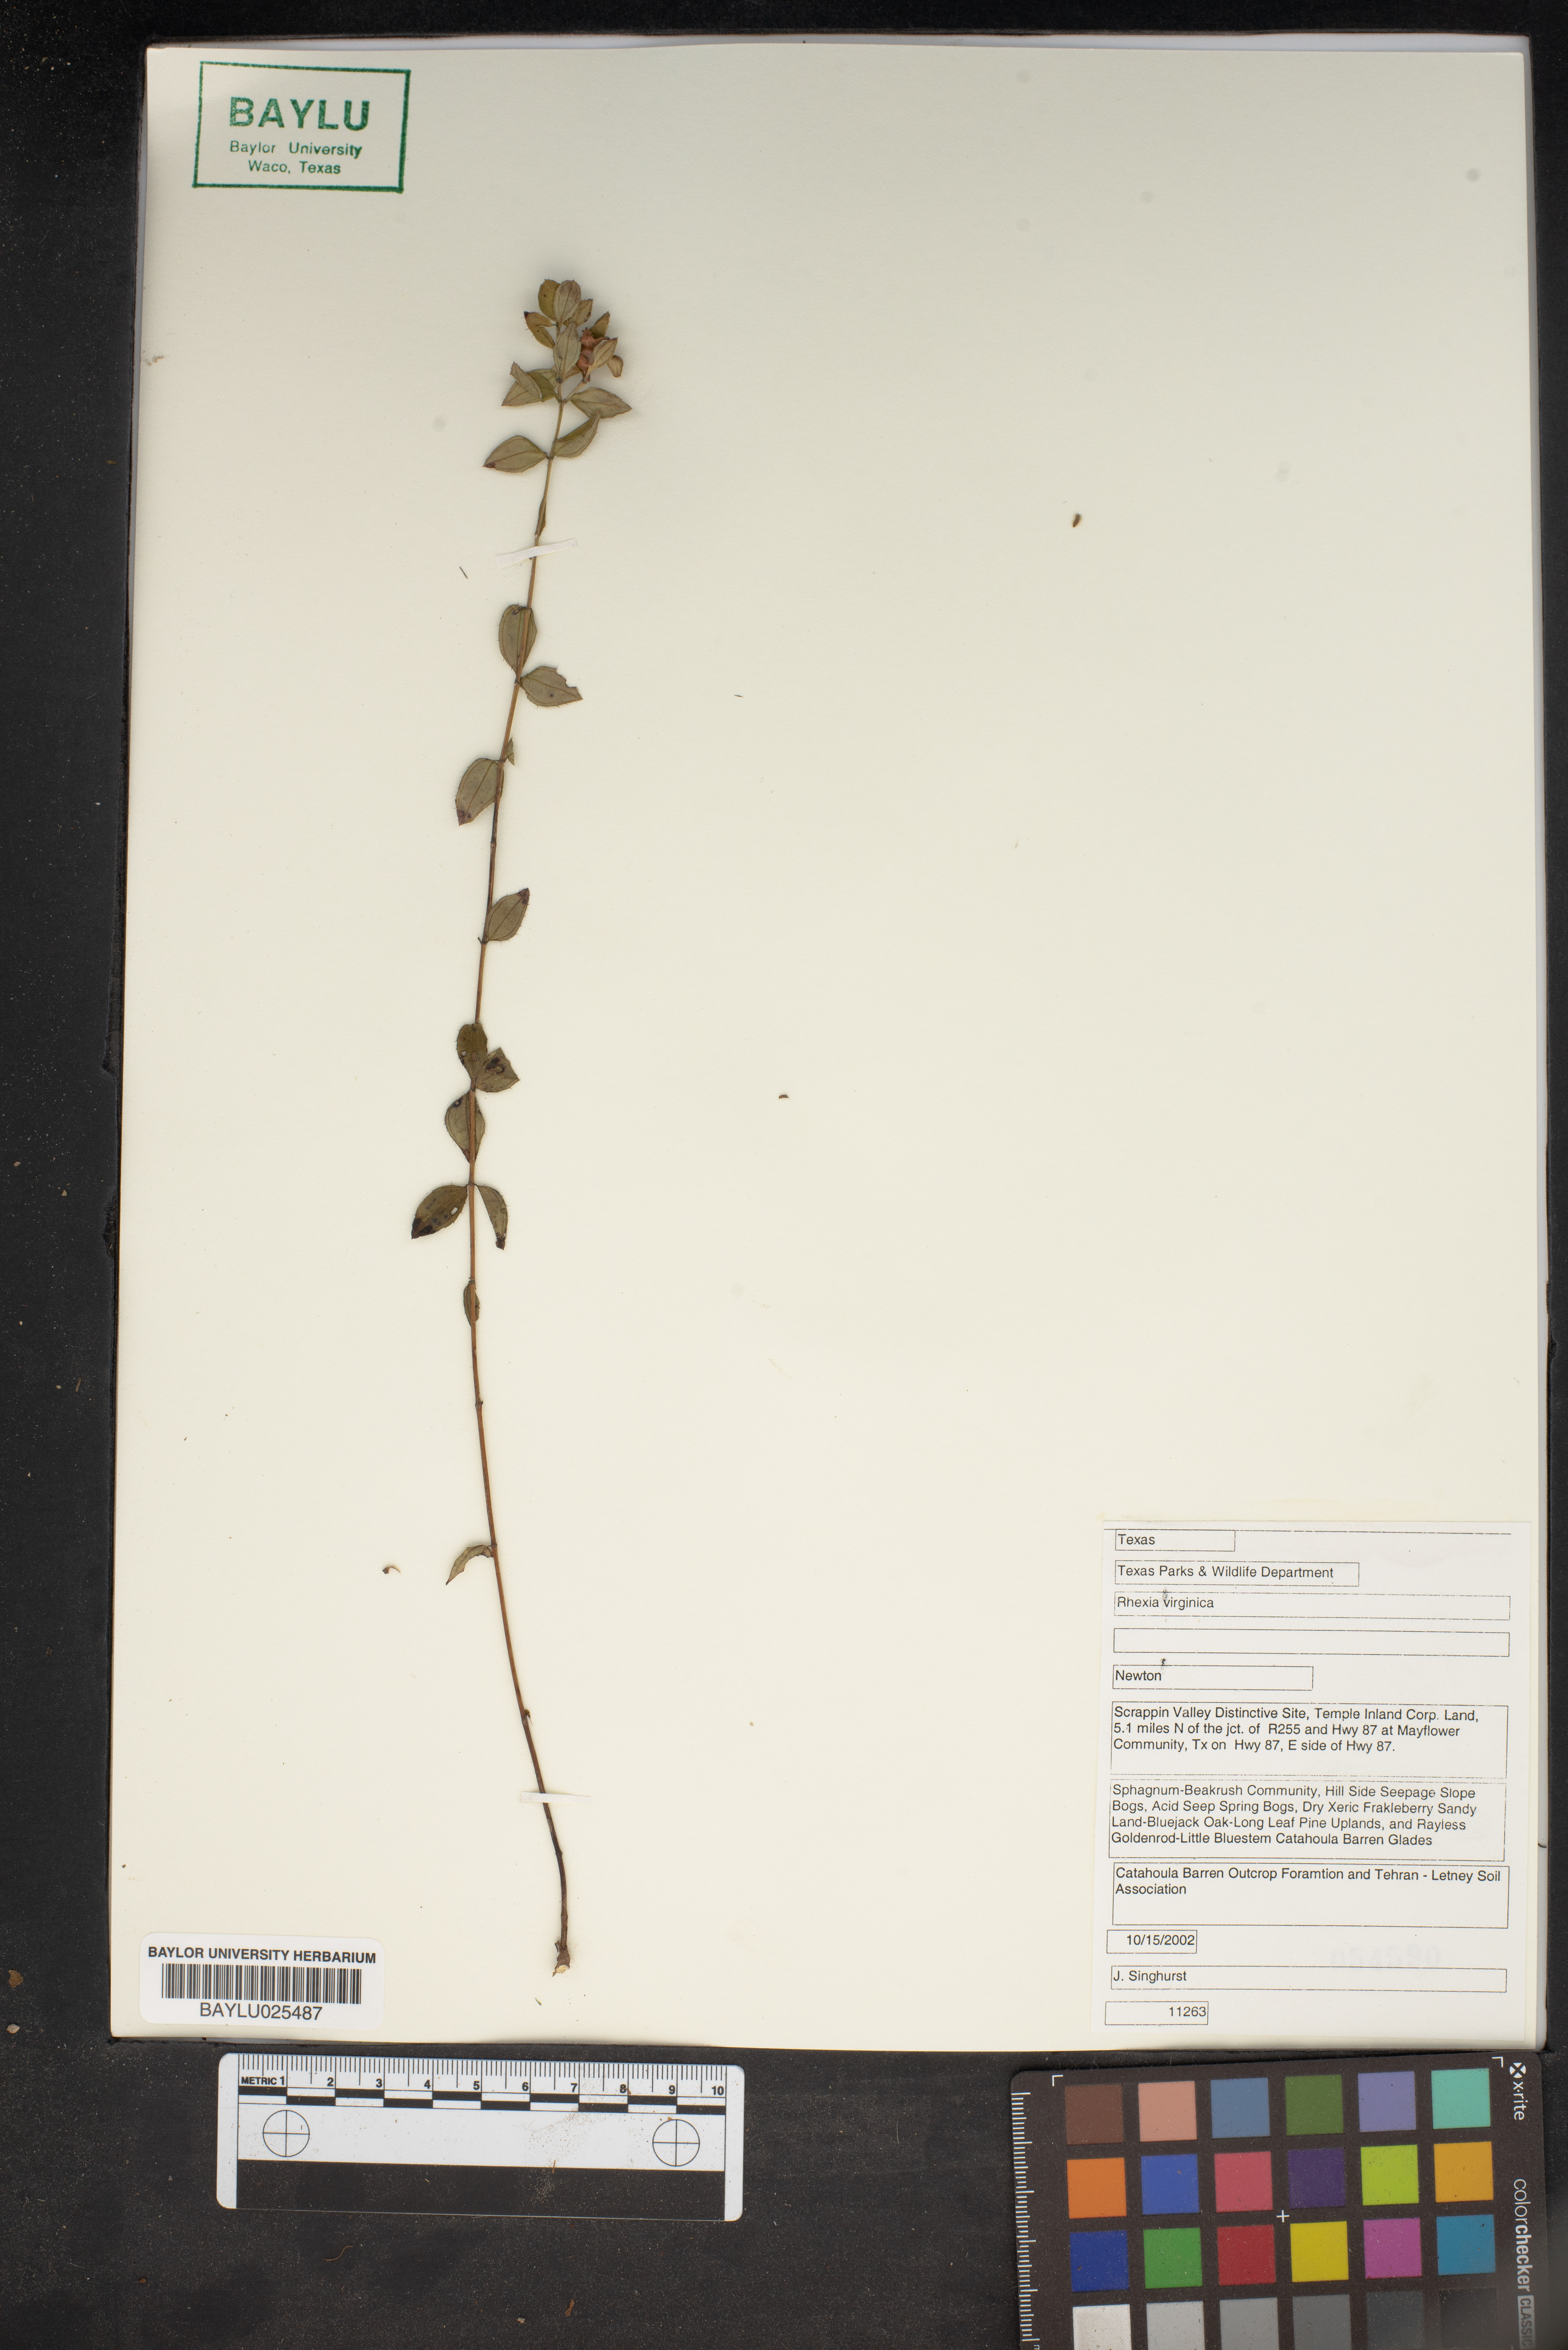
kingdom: Plantae
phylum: Tracheophyta
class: Magnoliopsida
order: Myrtales
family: Melastomataceae
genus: Rhexia
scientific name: Rhexia virginica
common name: Common meadow beauty
